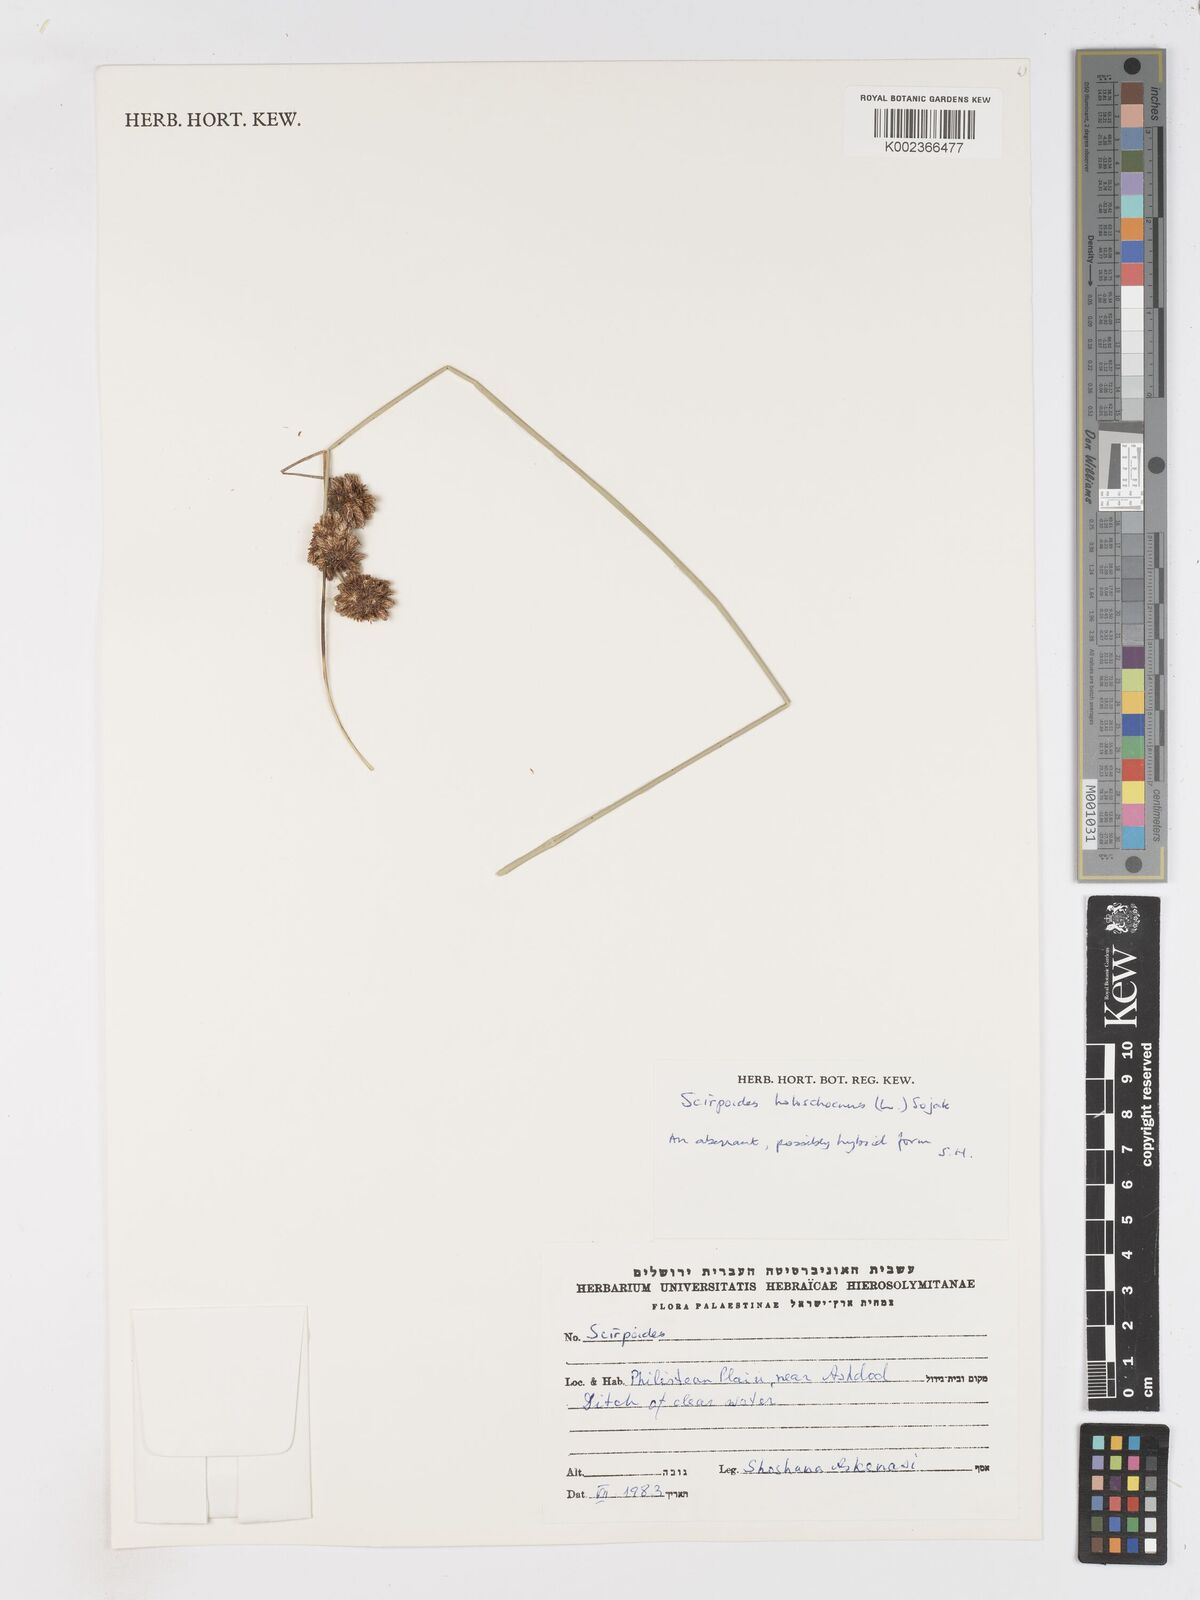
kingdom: Plantae
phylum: Tracheophyta
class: Liliopsida
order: Poales
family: Cyperaceae
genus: Scirpoides
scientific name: Scirpoides holoschoenus
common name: Round-headed club-rush
